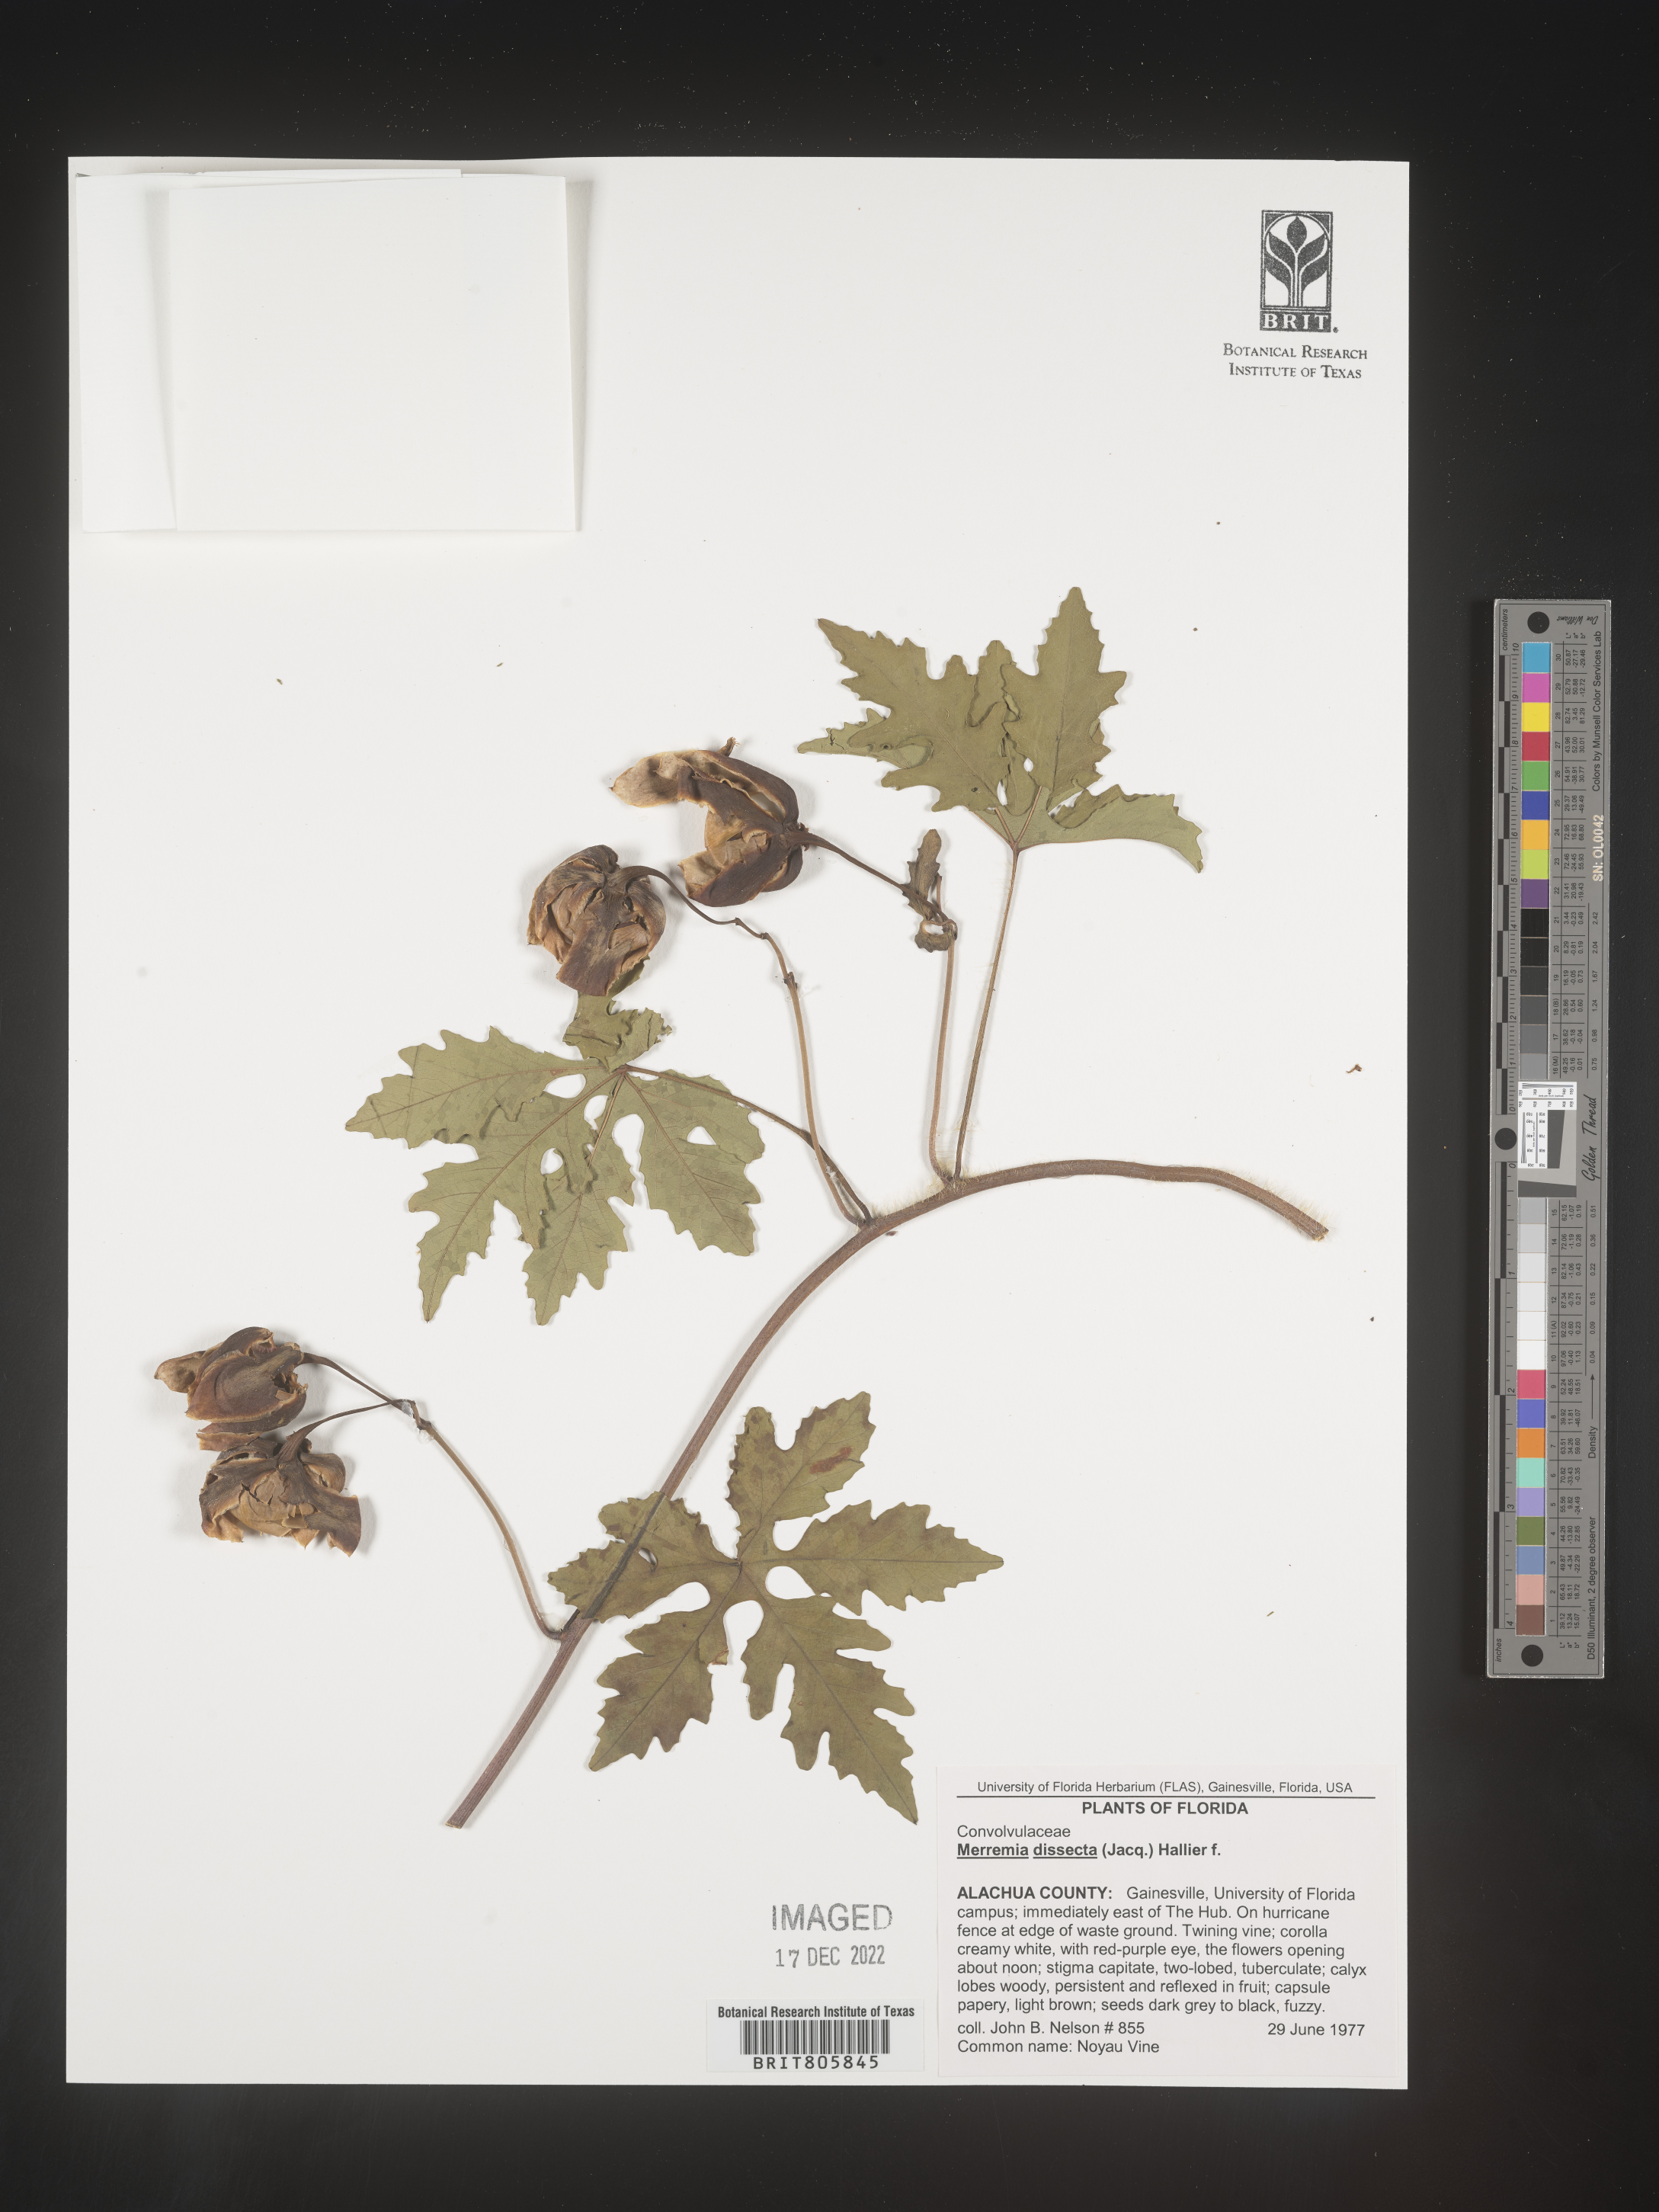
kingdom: Plantae
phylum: Tracheophyta
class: Magnoliopsida
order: Solanales
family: Convolvulaceae
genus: Merremia
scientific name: Merremia
